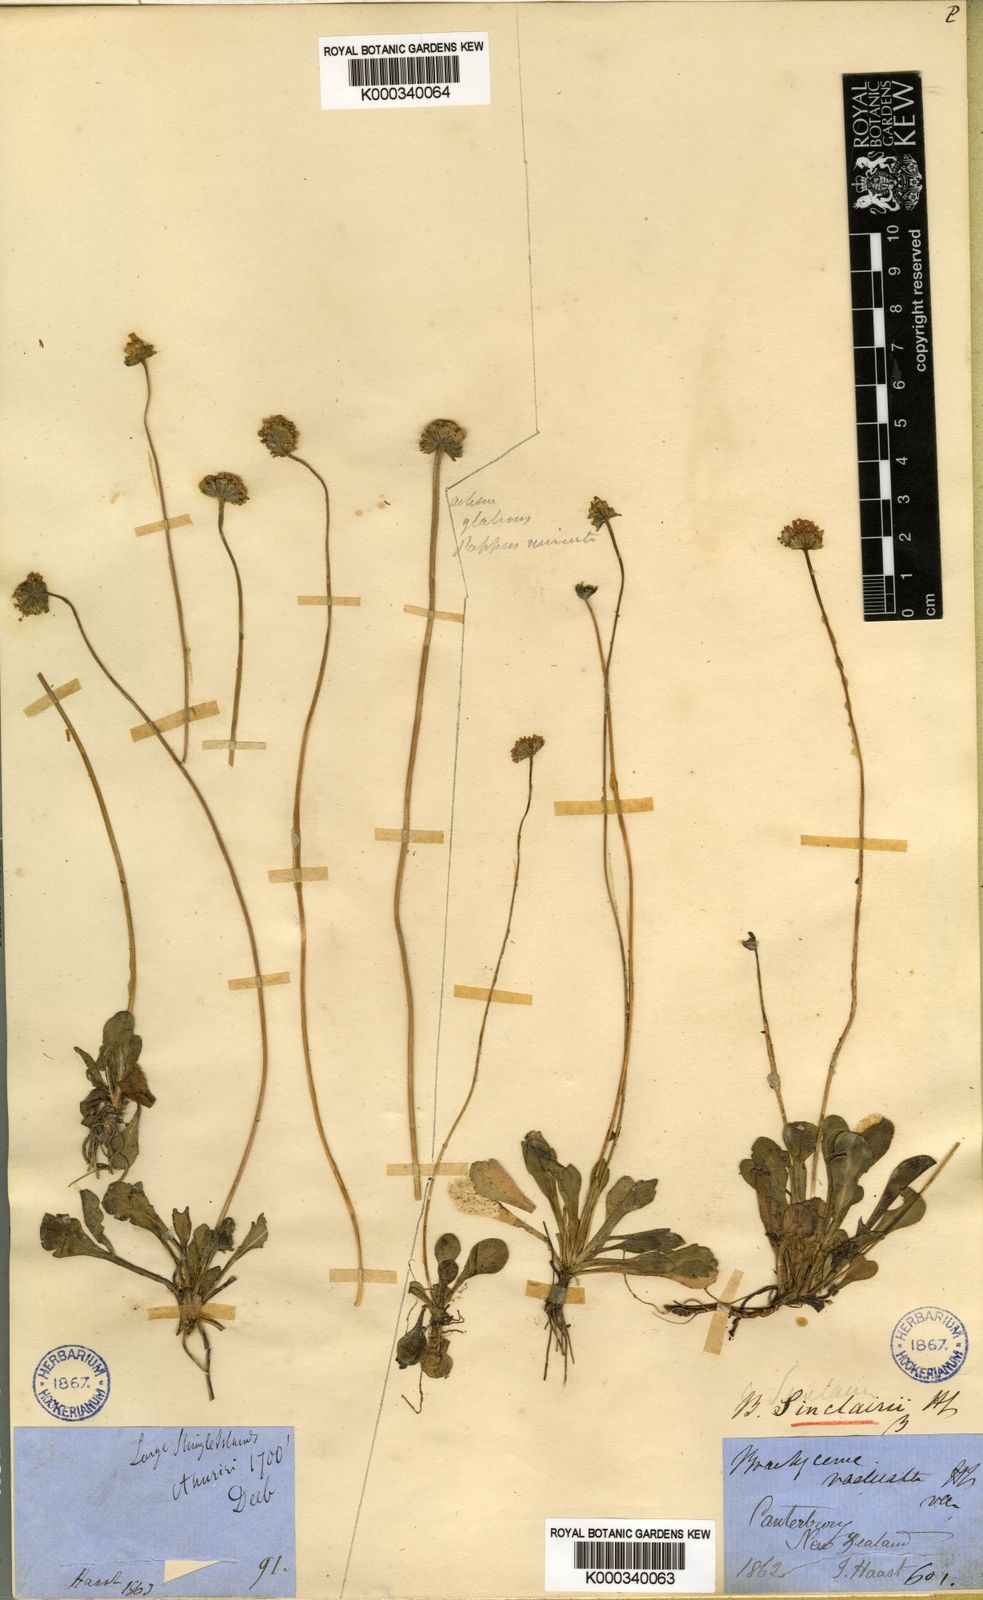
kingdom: Plantae
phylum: Tracheophyta
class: Magnoliopsida
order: Asterales
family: Asteraceae
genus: Brachyscome
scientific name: Brachyscome sinclairii
